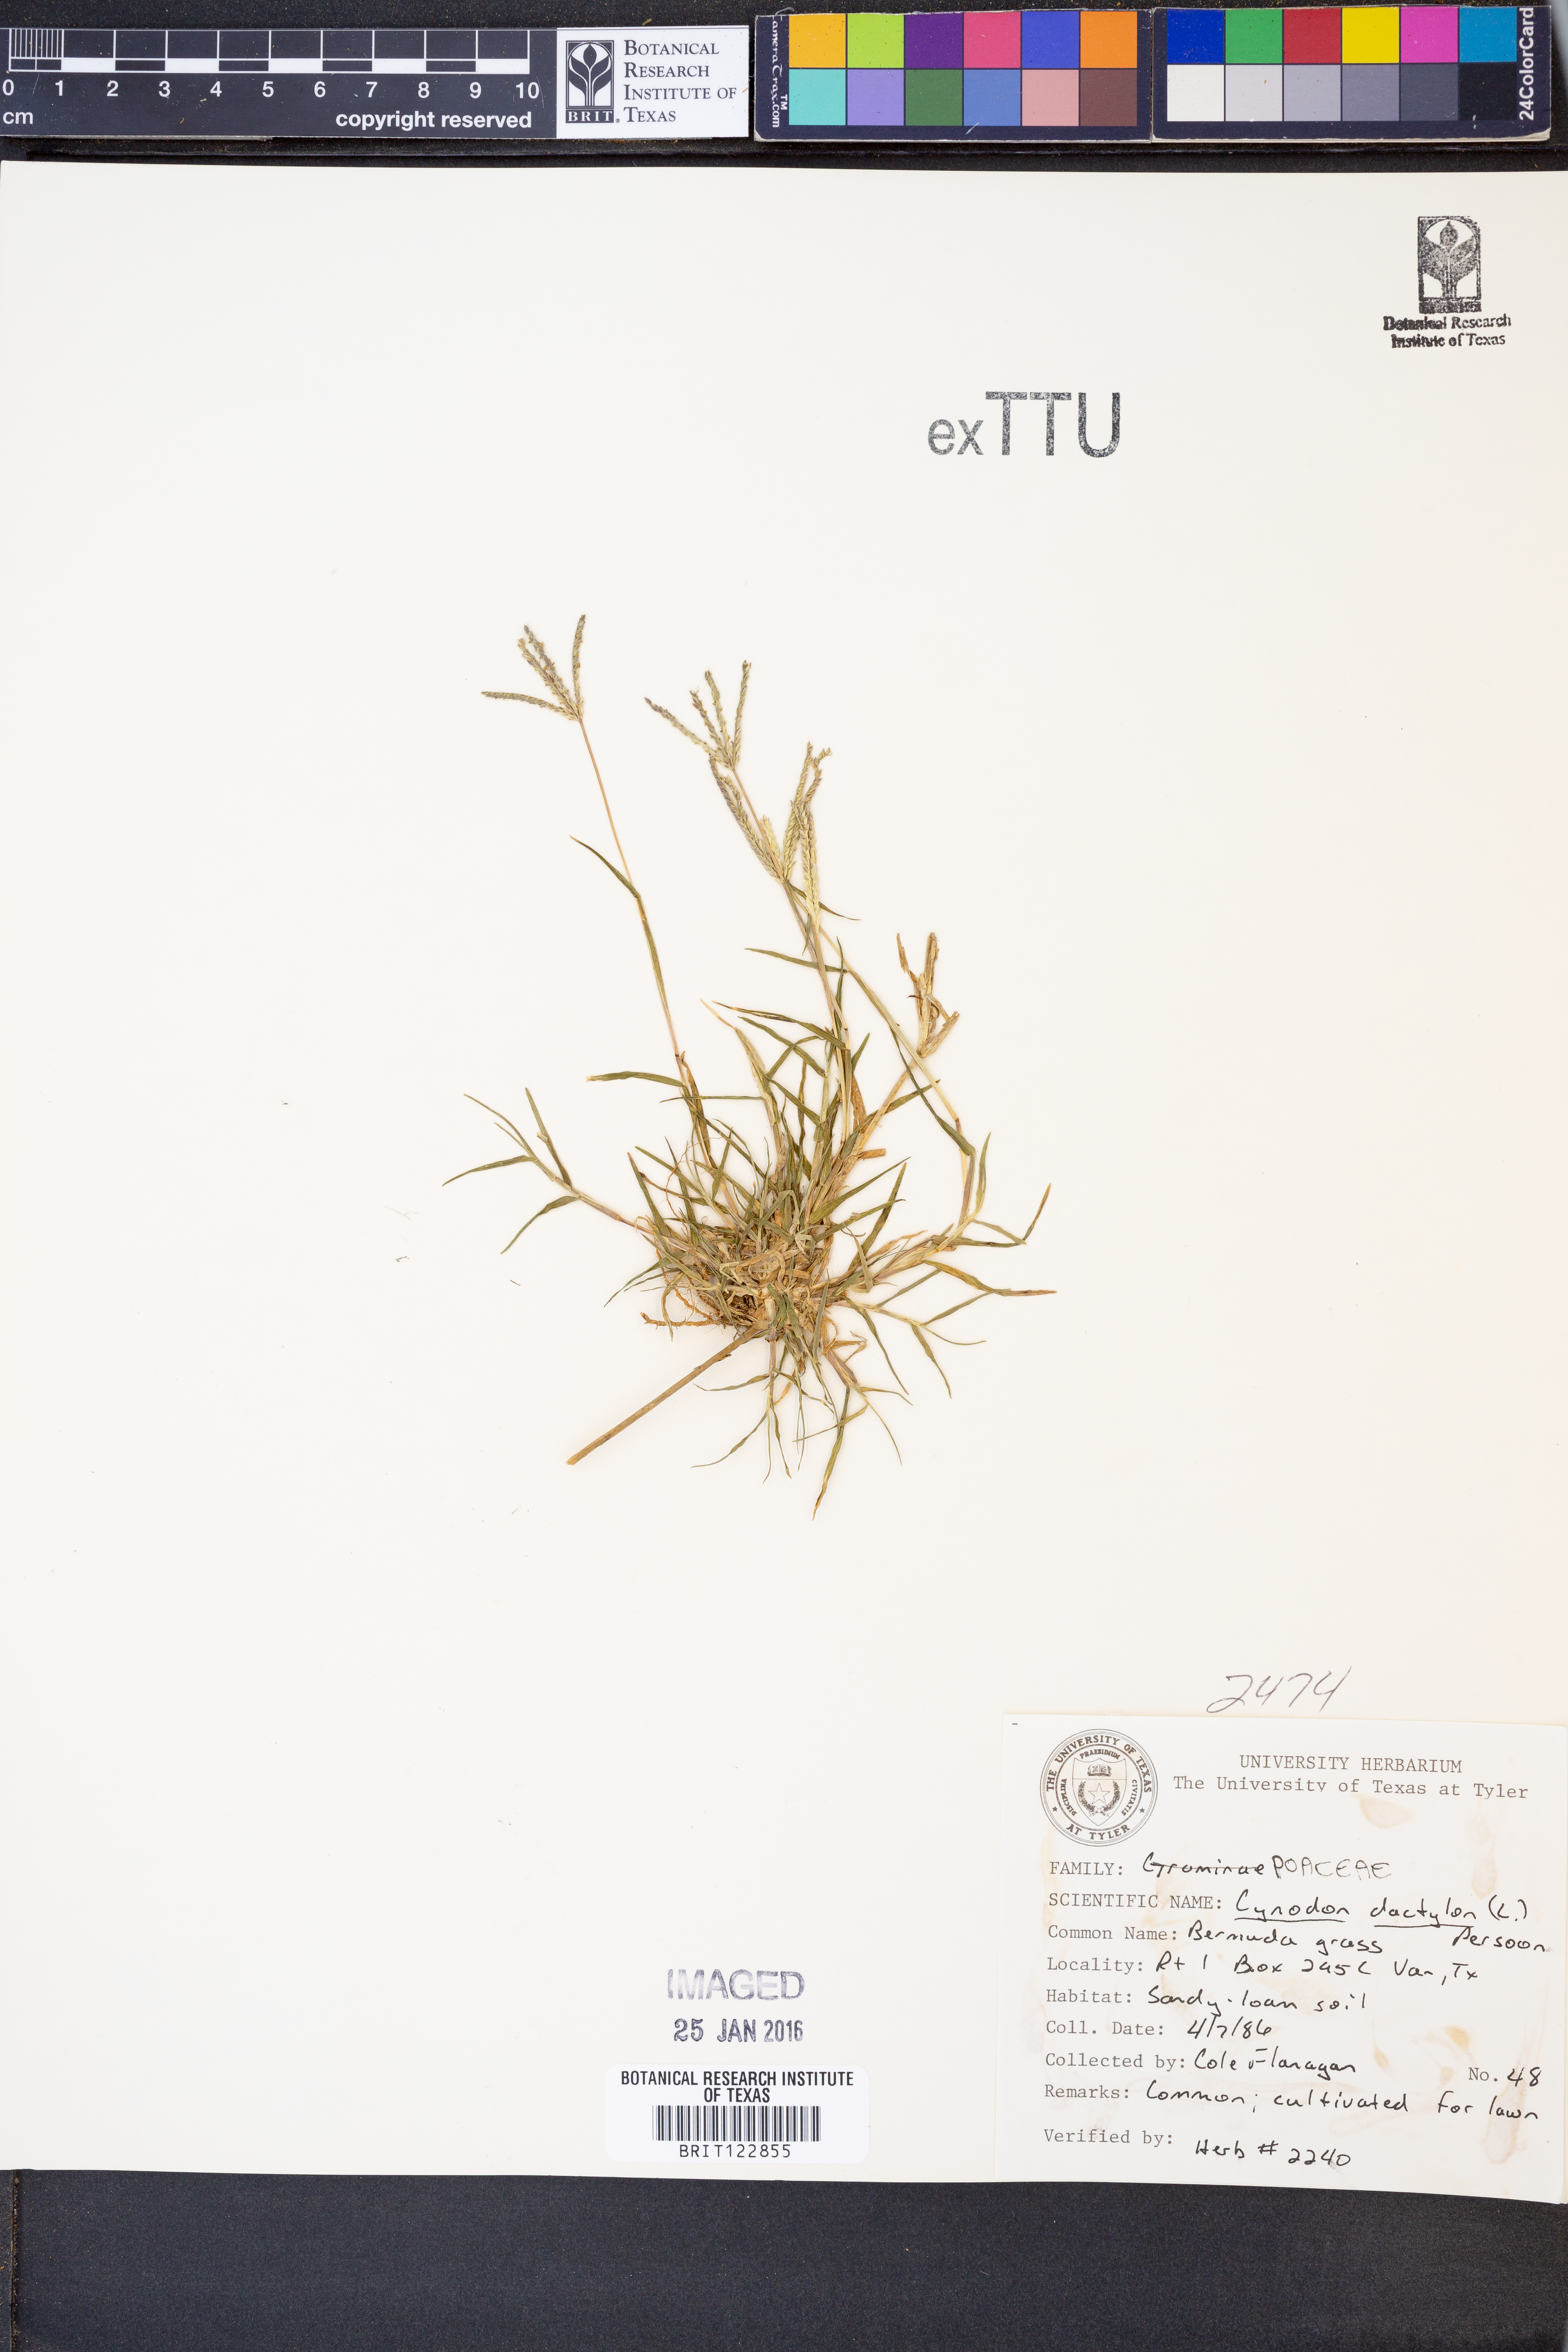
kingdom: Plantae
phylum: Tracheophyta
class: Liliopsida
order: Poales
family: Poaceae
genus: Cynodon
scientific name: Cynodon dactylon
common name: Bermuda grass
